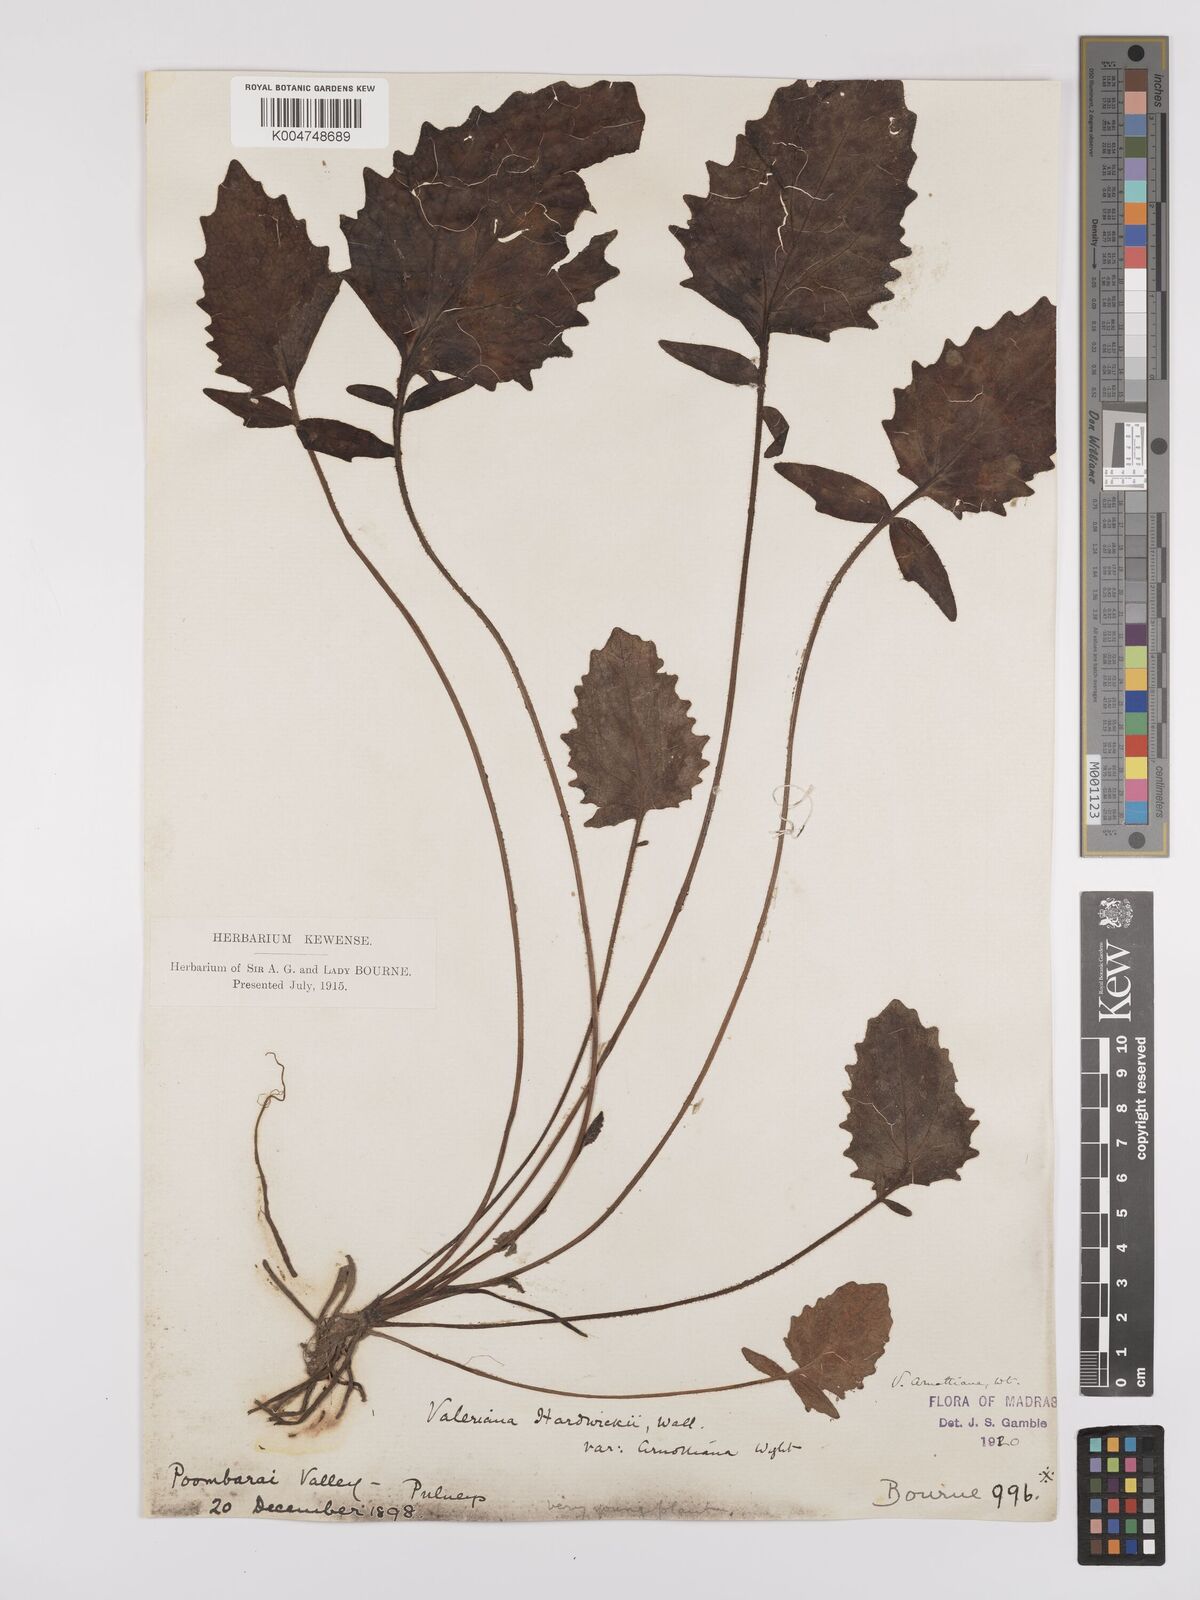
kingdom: Plantae
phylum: Tracheophyta
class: Magnoliopsida
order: Dipsacales
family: Caprifoliaceae
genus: Valeriana
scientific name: Valeriana
